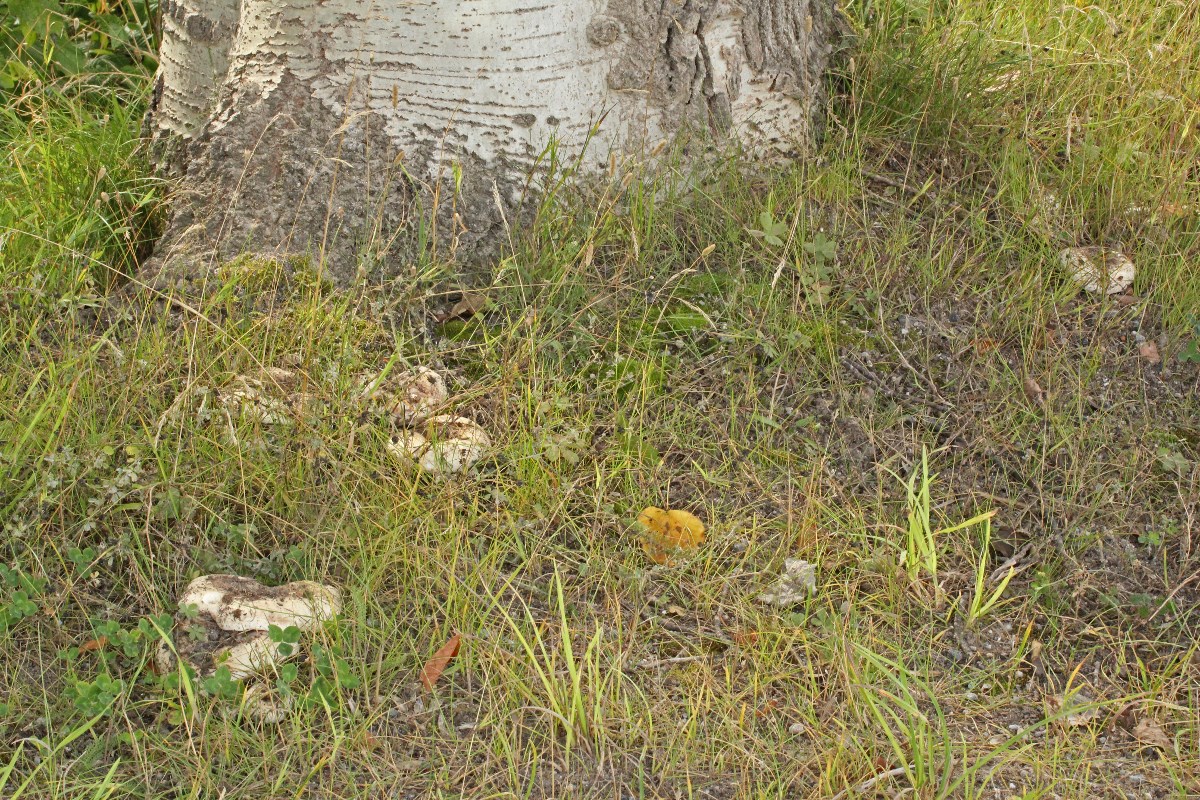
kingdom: Fungi
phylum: Basidiomycota
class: Agaricomycetes
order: Russulales
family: Russulaceae
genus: Lactarius
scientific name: Lactarius controversus
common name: rosabladet mælkehat
